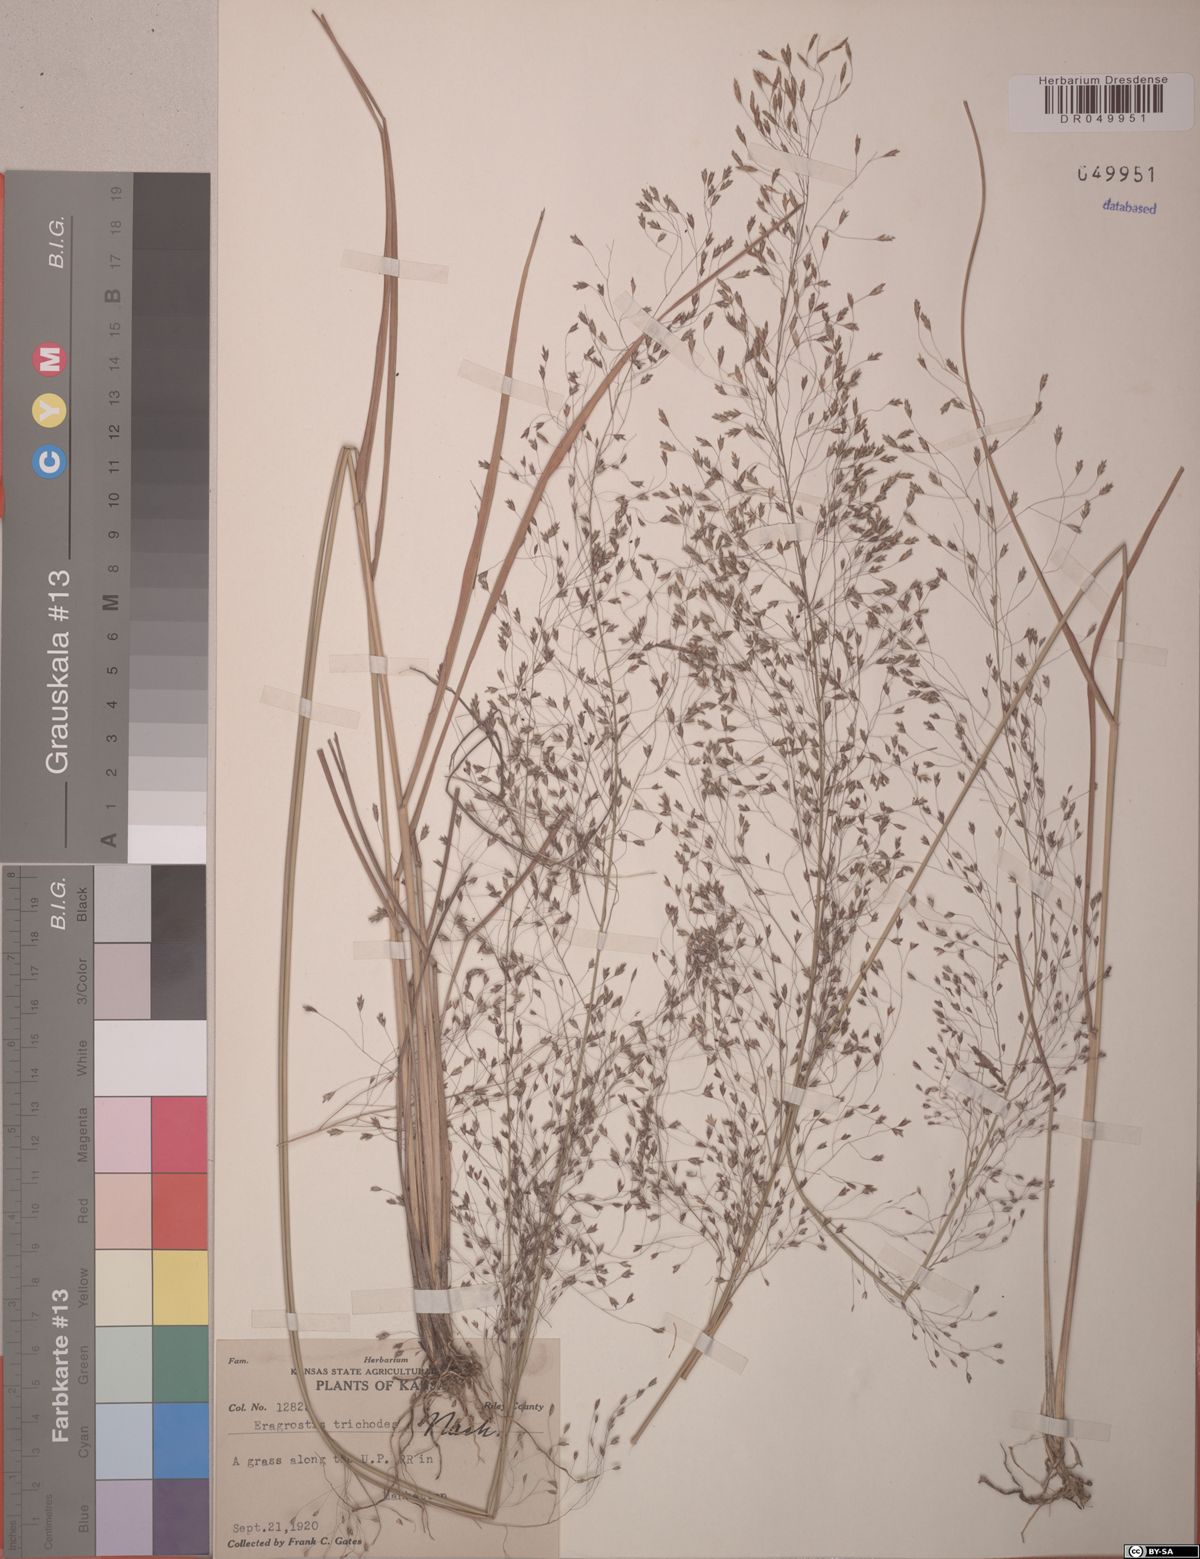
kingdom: Plantae
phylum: Tracheophyta
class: Liliopsida
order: Poales
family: Poaceae
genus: Eragrostis
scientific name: Eragrostis trichodes
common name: Sand love grass
